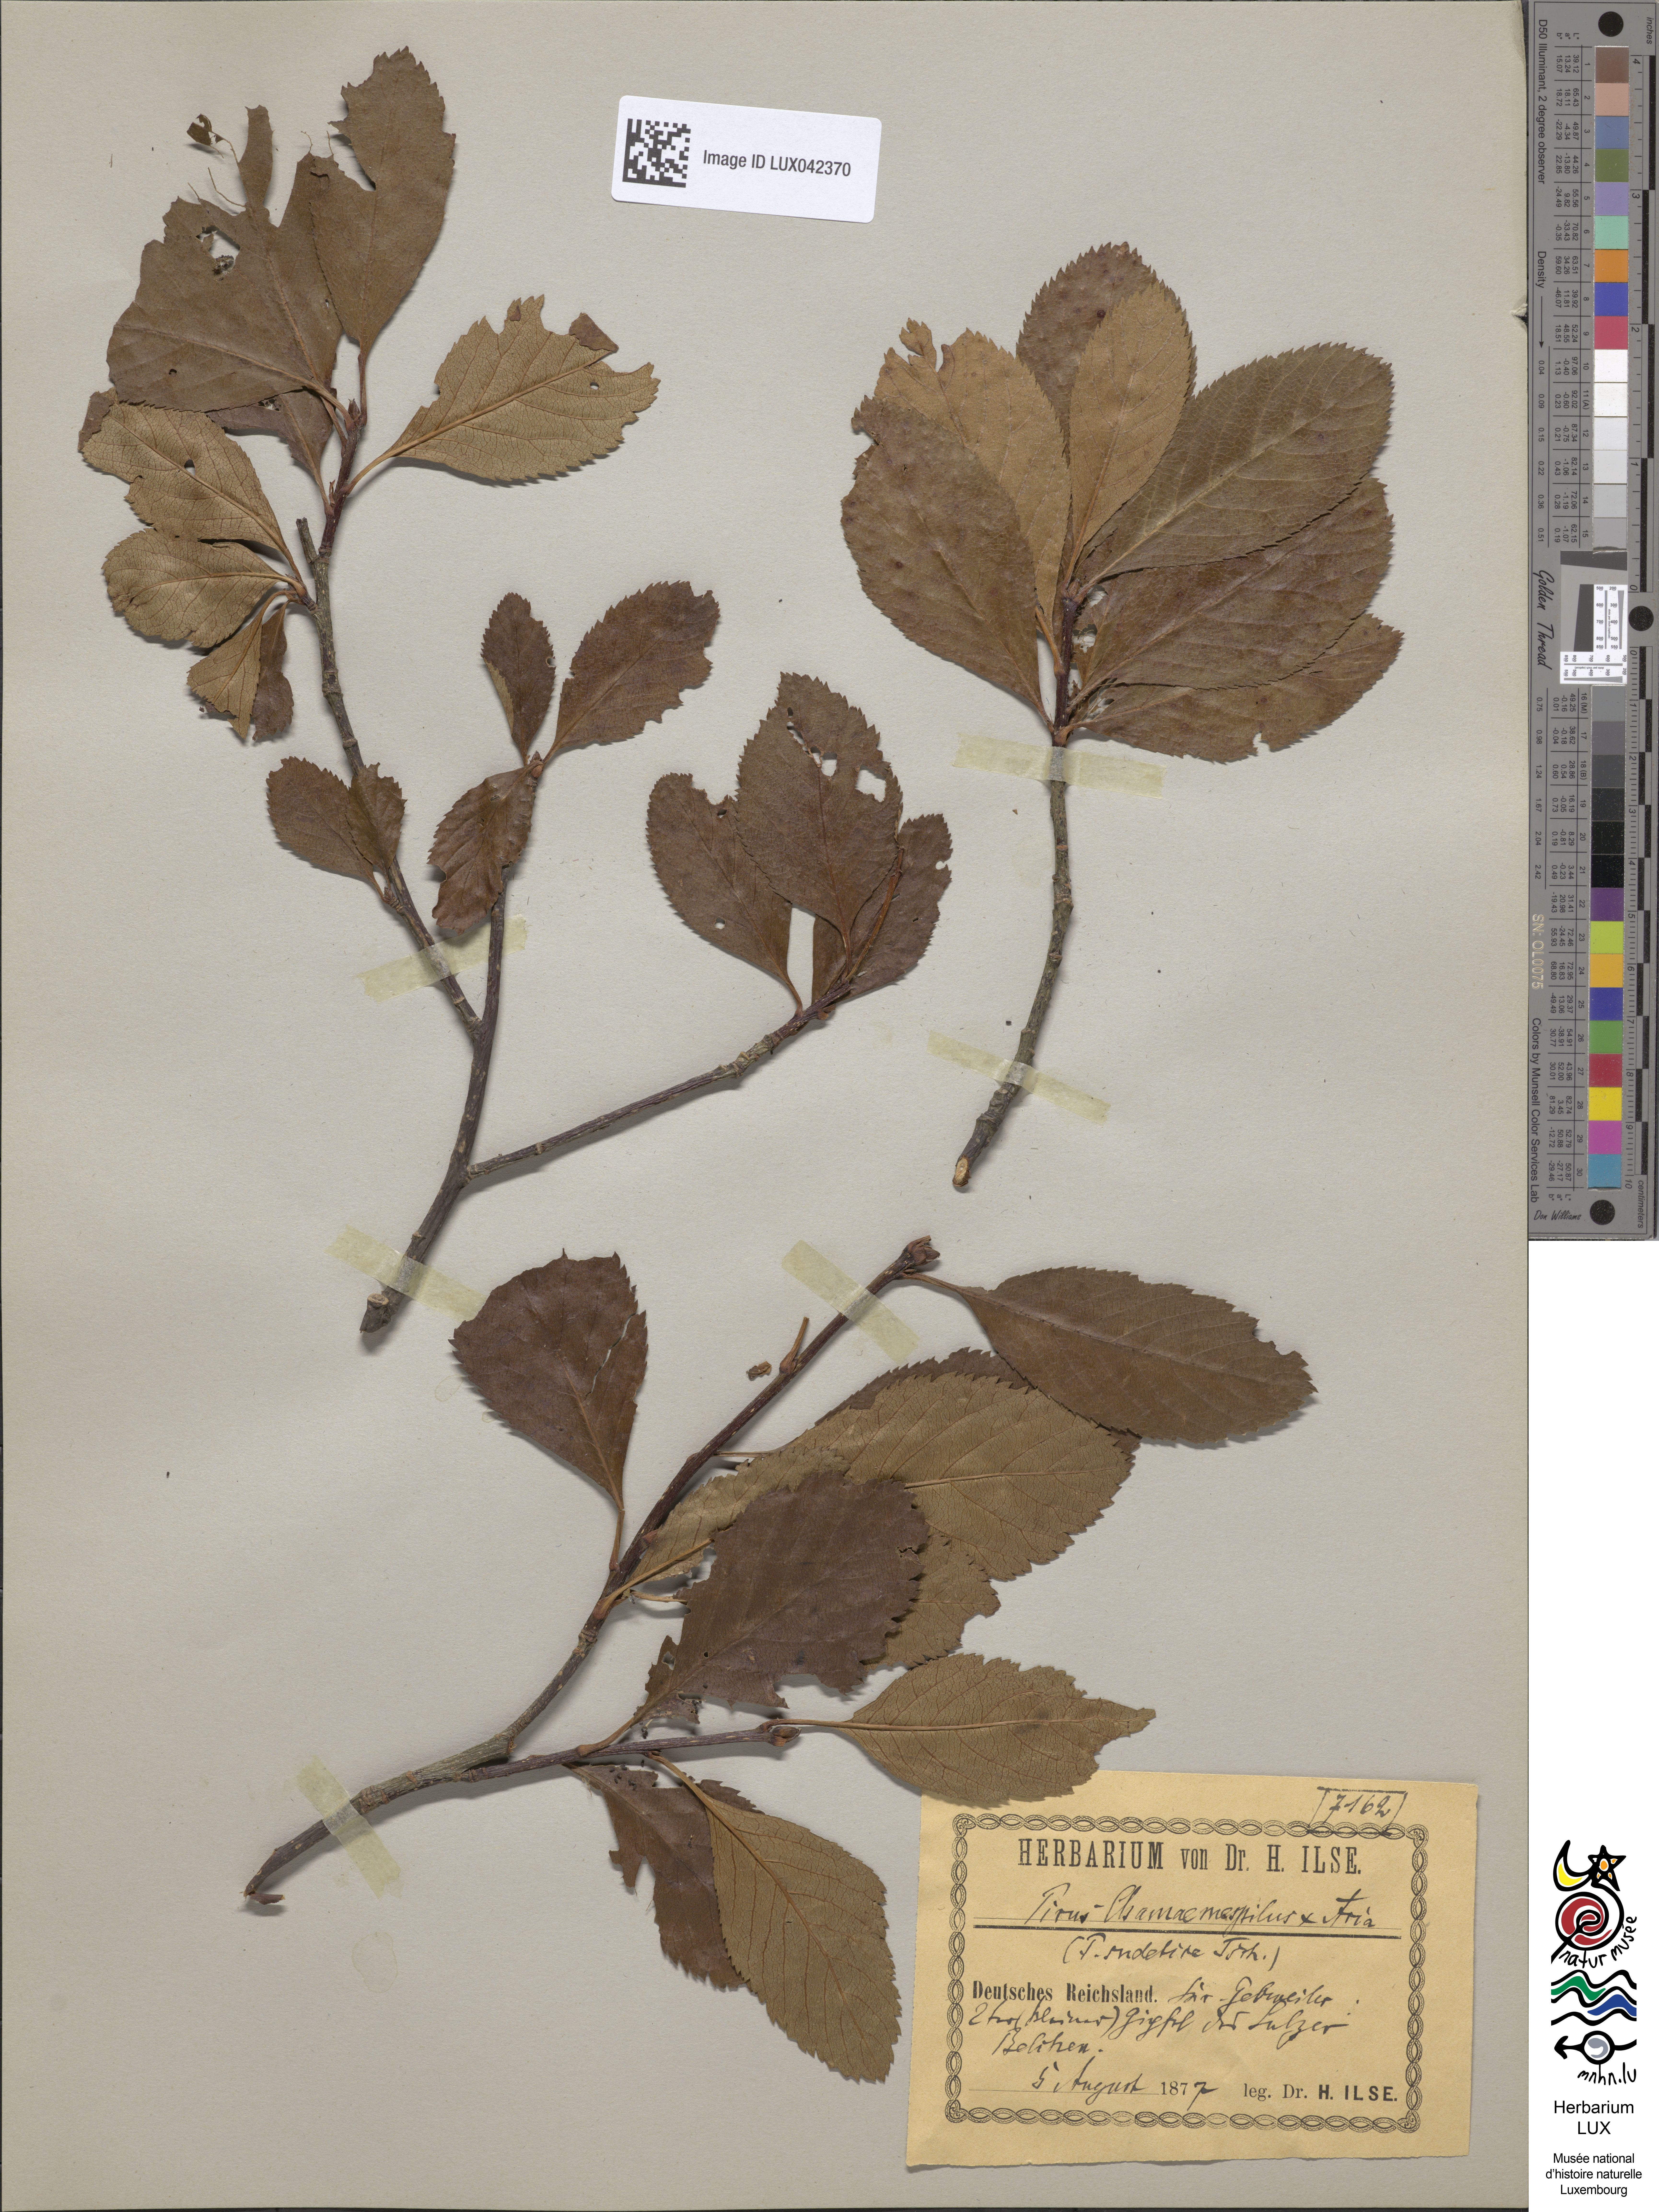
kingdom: Plantae
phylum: Tracheophyta
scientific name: Tracheophyta
